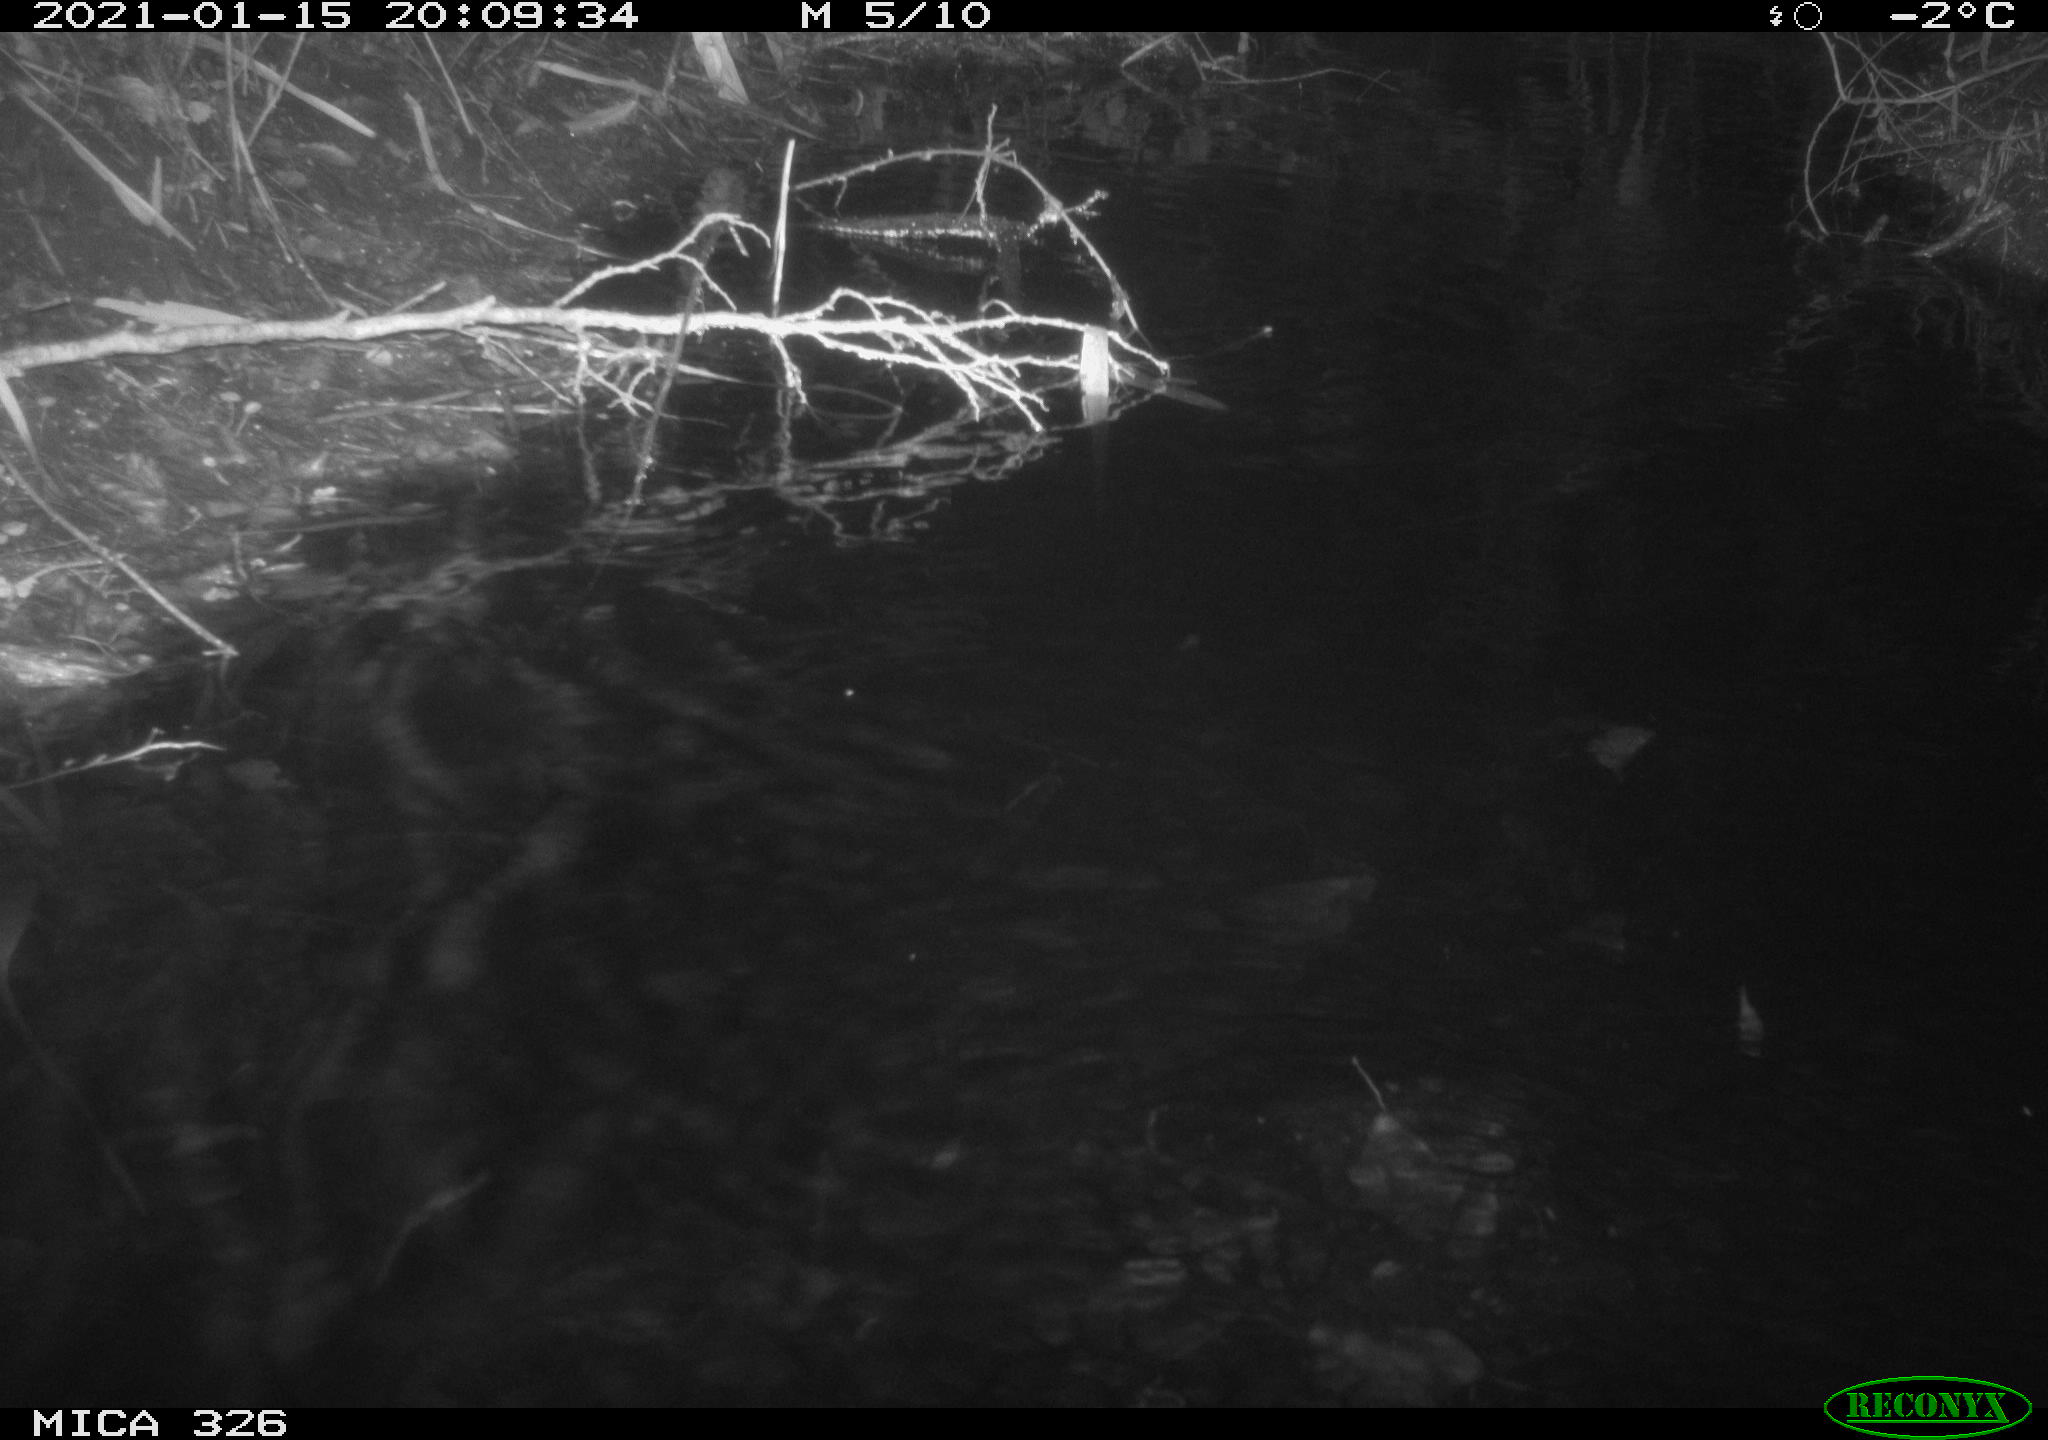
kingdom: Animalia
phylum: Chordata
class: Mammalia
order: Rodentia
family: Myocastoridae
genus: Myocastor
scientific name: Myocastor coypus
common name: Coypu
